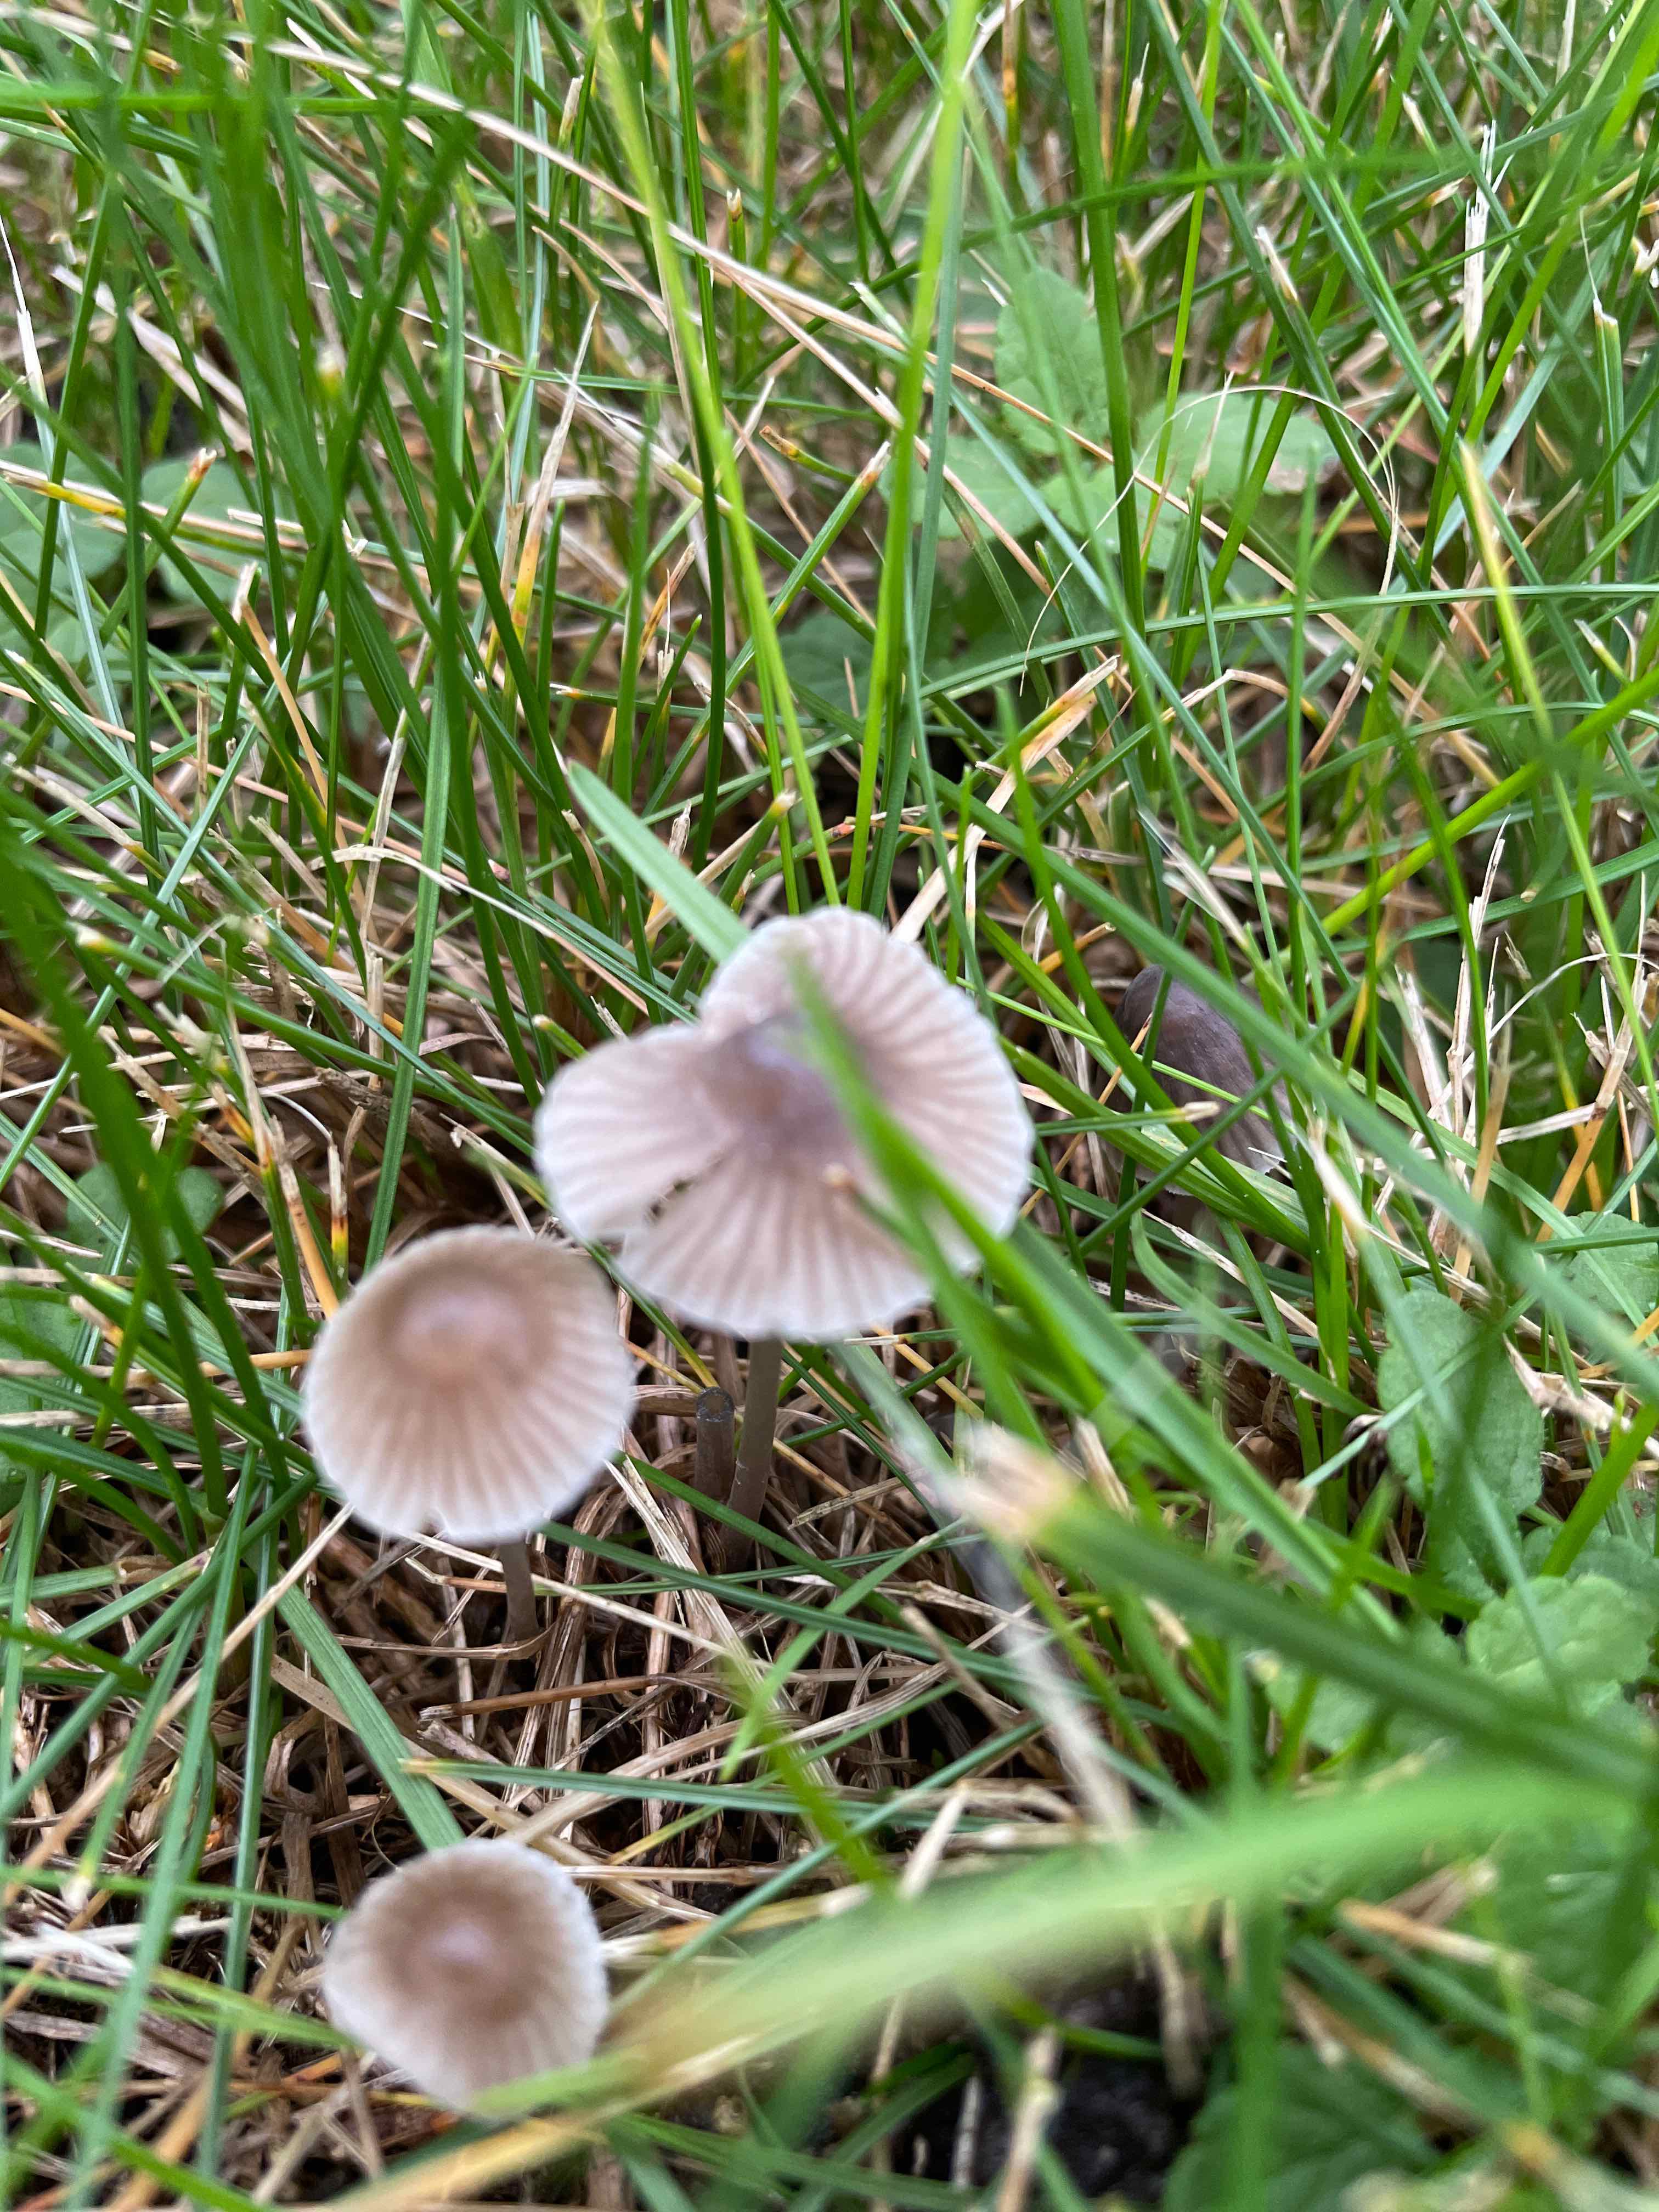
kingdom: Fungi
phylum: Basidiomycota
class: Agaricomycetes
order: Agaricales
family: Mycenaceae
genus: Mycena
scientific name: Mycena
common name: huesvamp
